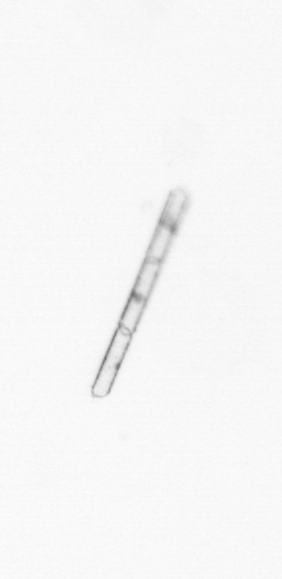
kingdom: Chromista
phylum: Ochrophyta
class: Bacillariophyceae
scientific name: Bacillariophyceae
